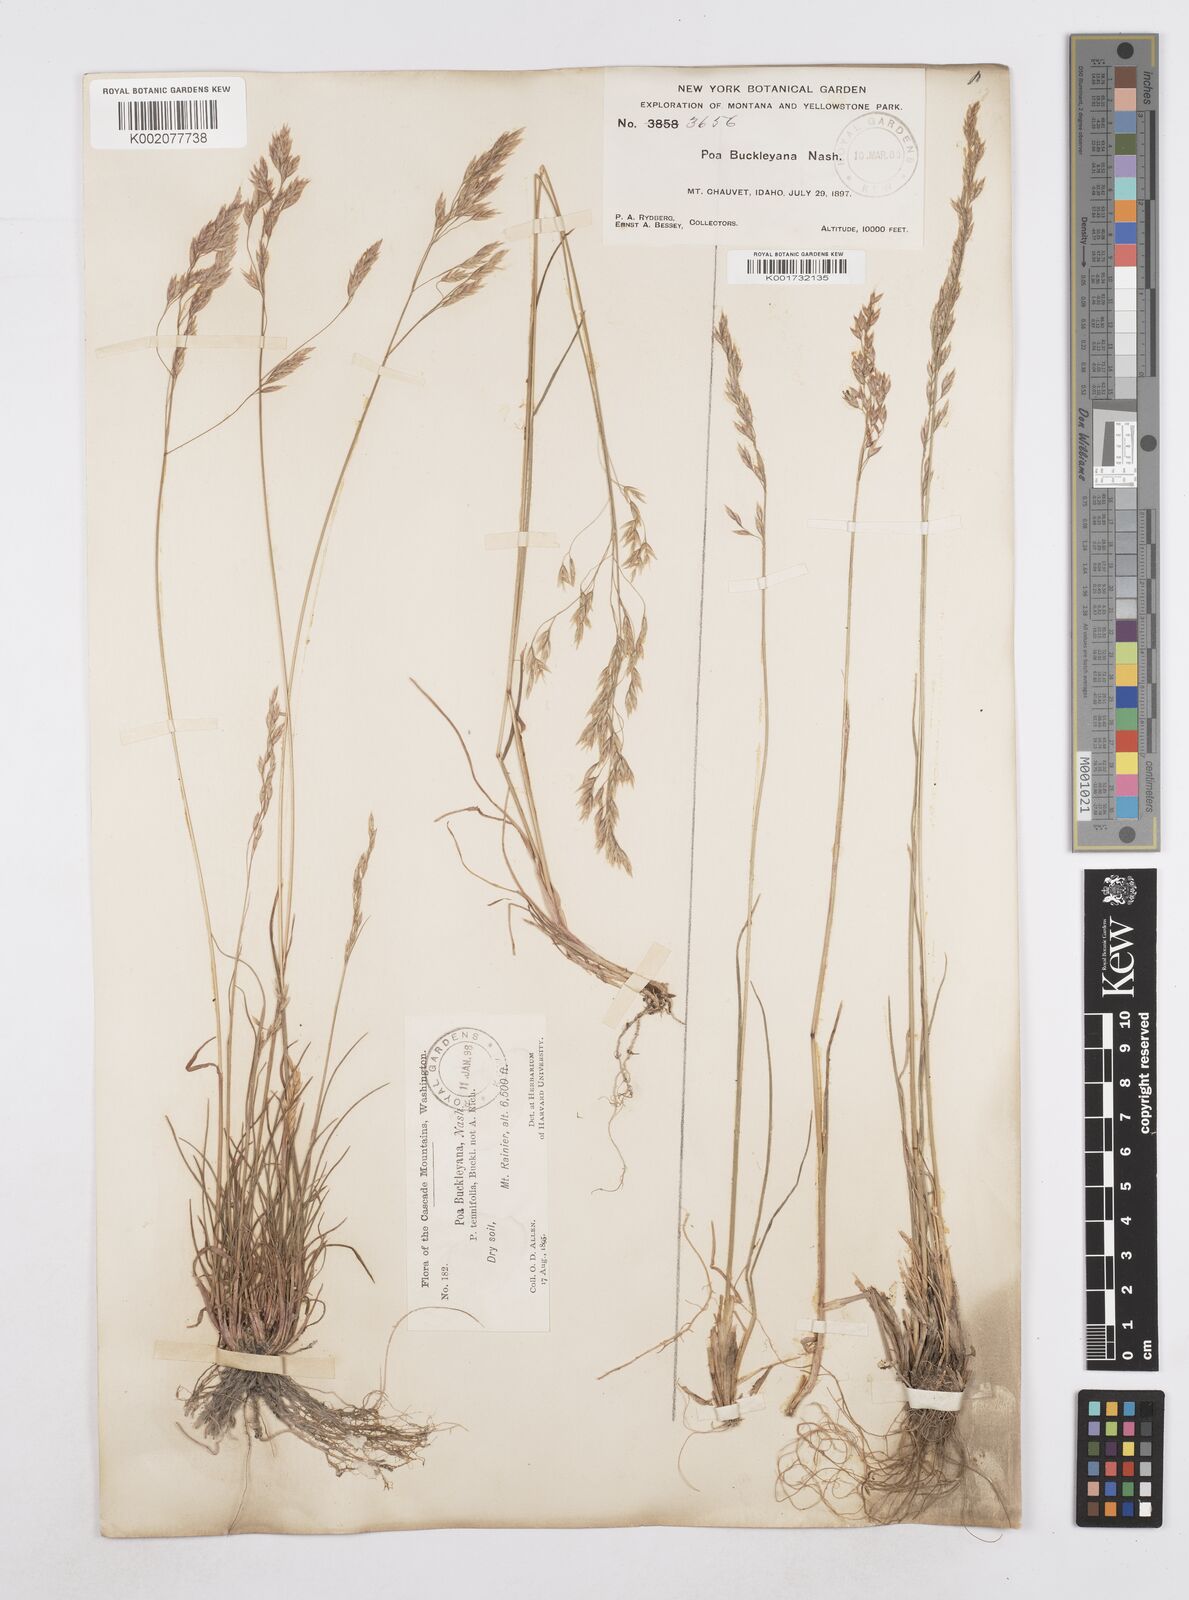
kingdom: Plantae
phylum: Tracheophyta
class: Liliopsida
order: Poales
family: Poaceae
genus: Poa
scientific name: Poa secunda
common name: Sandberg bluegrass
